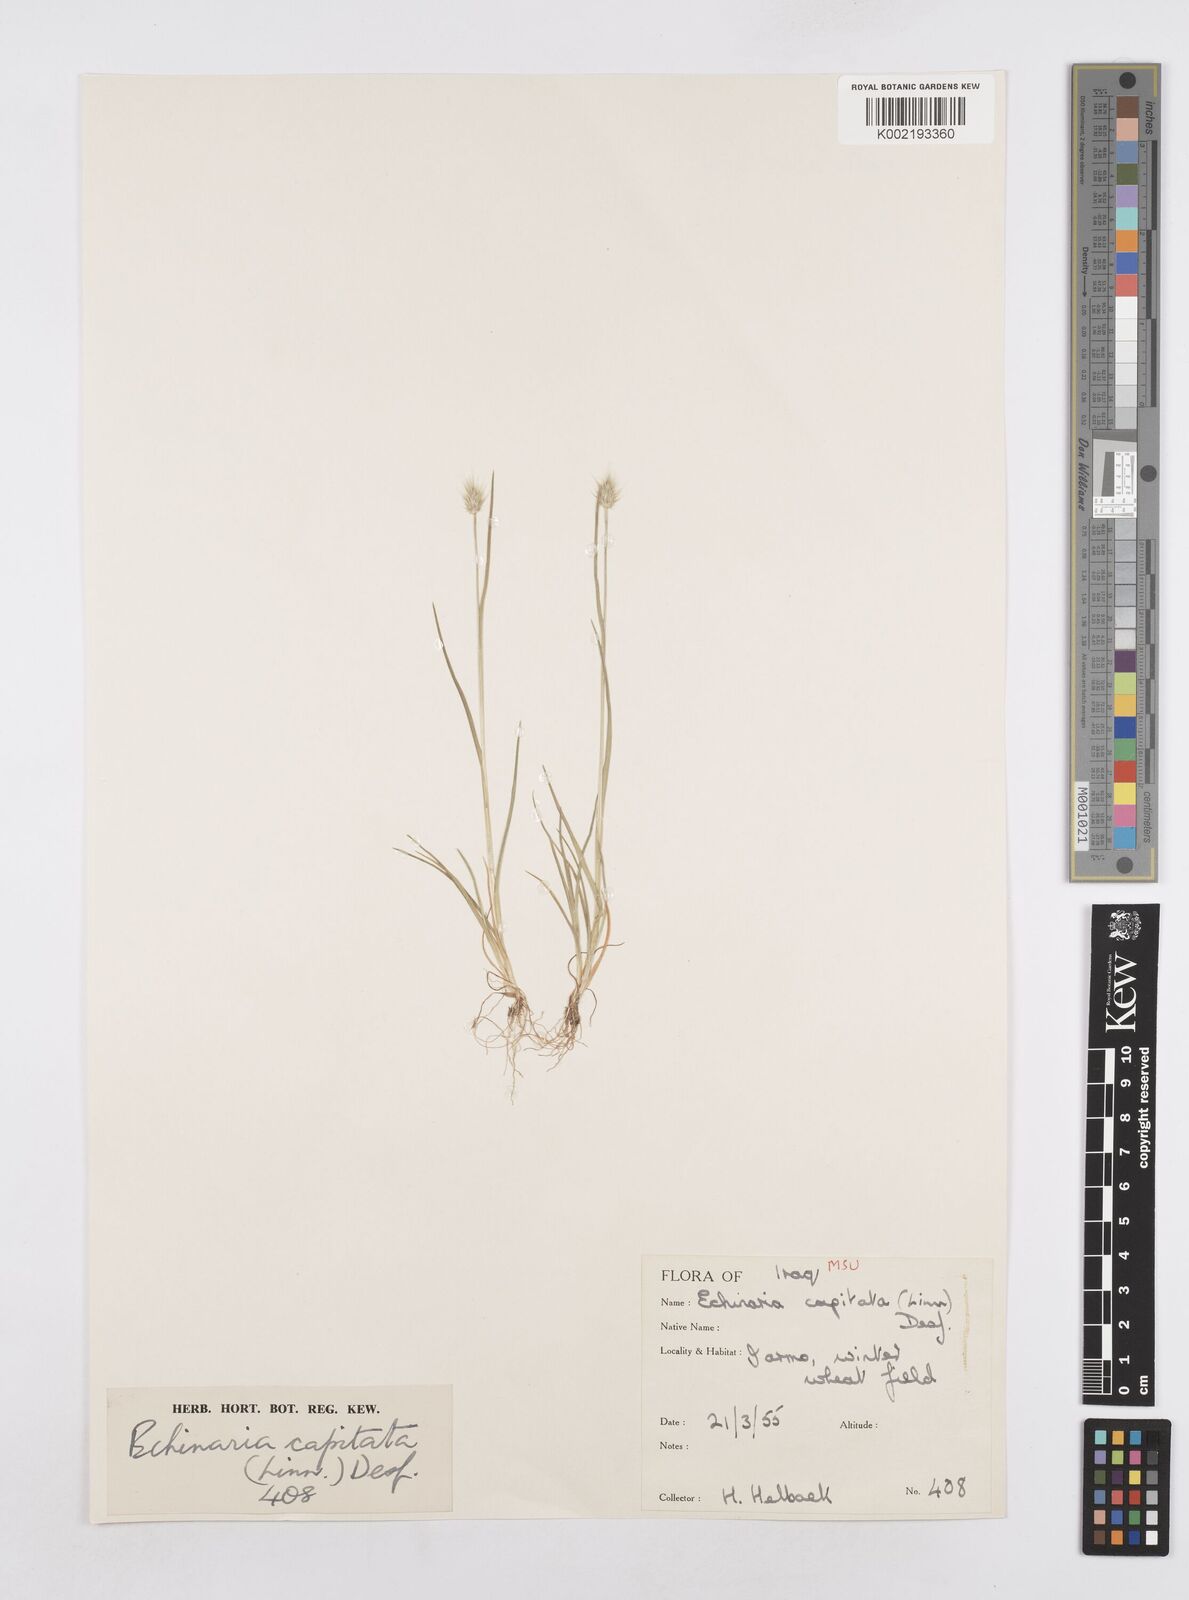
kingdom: Plantae
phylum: Tracheophyta
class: Liliopsida
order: Poales
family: Poaceae
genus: Echinaria
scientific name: Echinaria capitata
